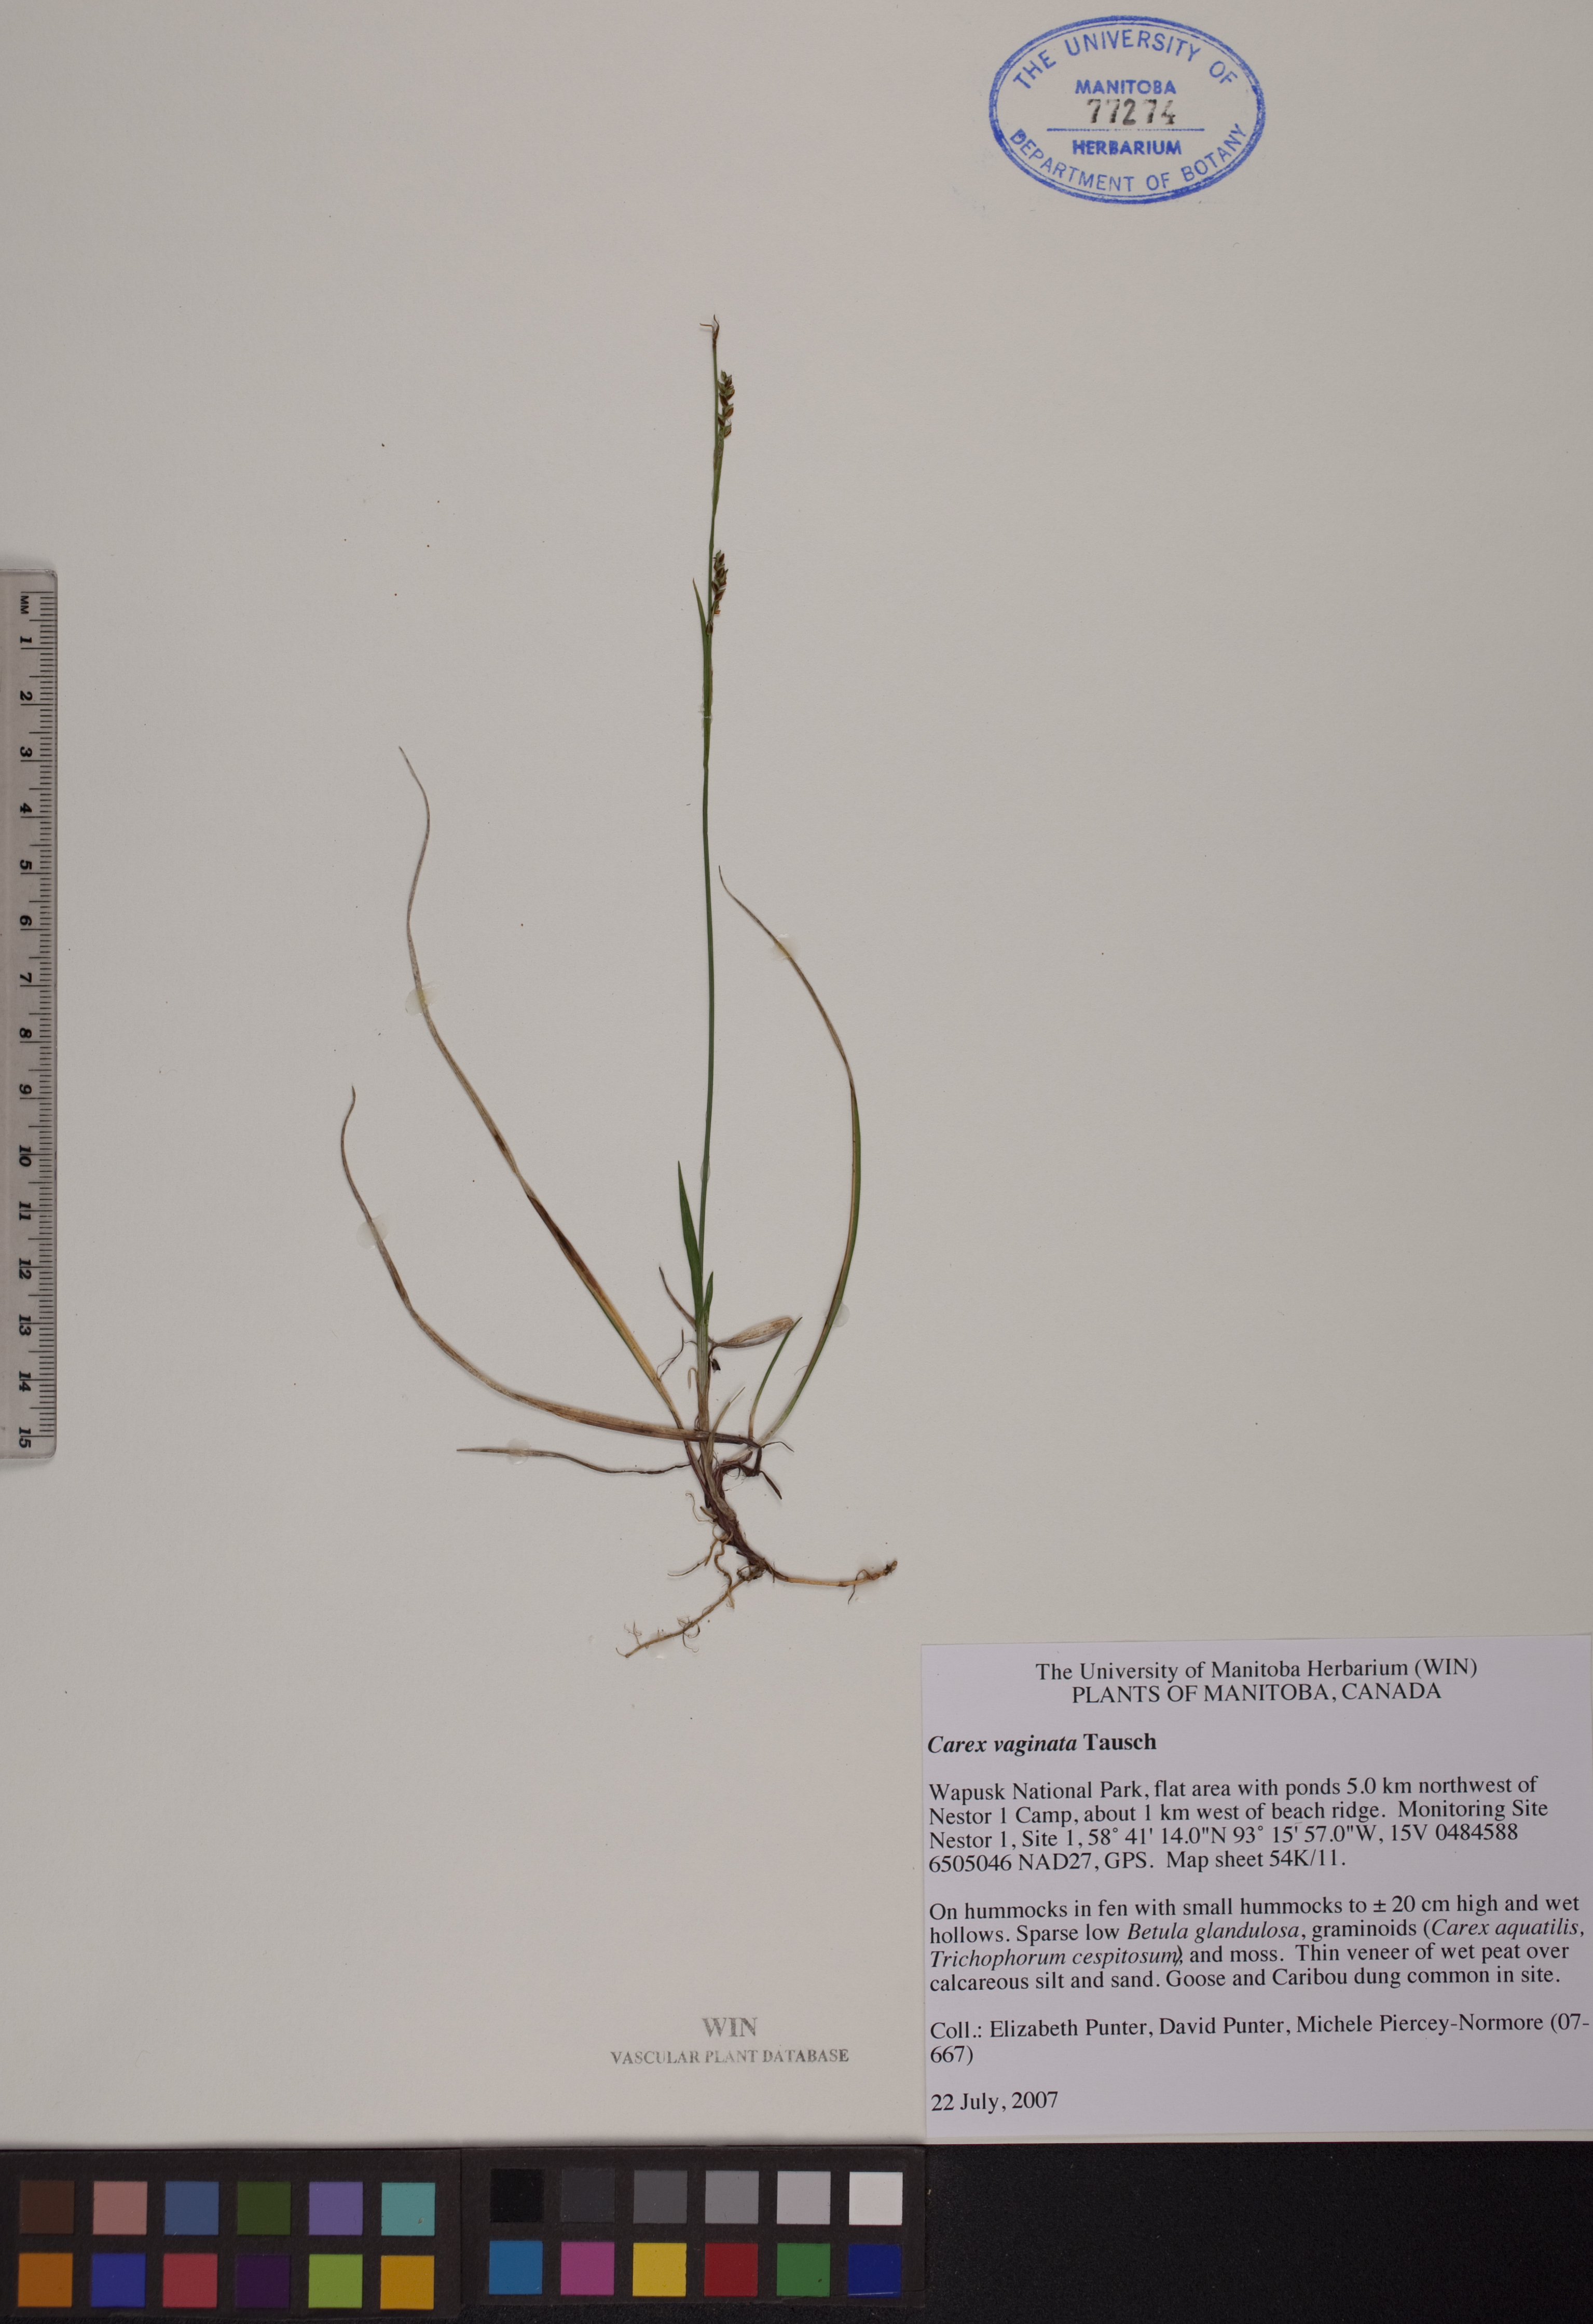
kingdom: Plantae
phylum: Tracheophyta
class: Liliopsida
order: Poales
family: Cyperaceae
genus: Carex
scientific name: Carex vaginata
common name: Sheathed sedge
